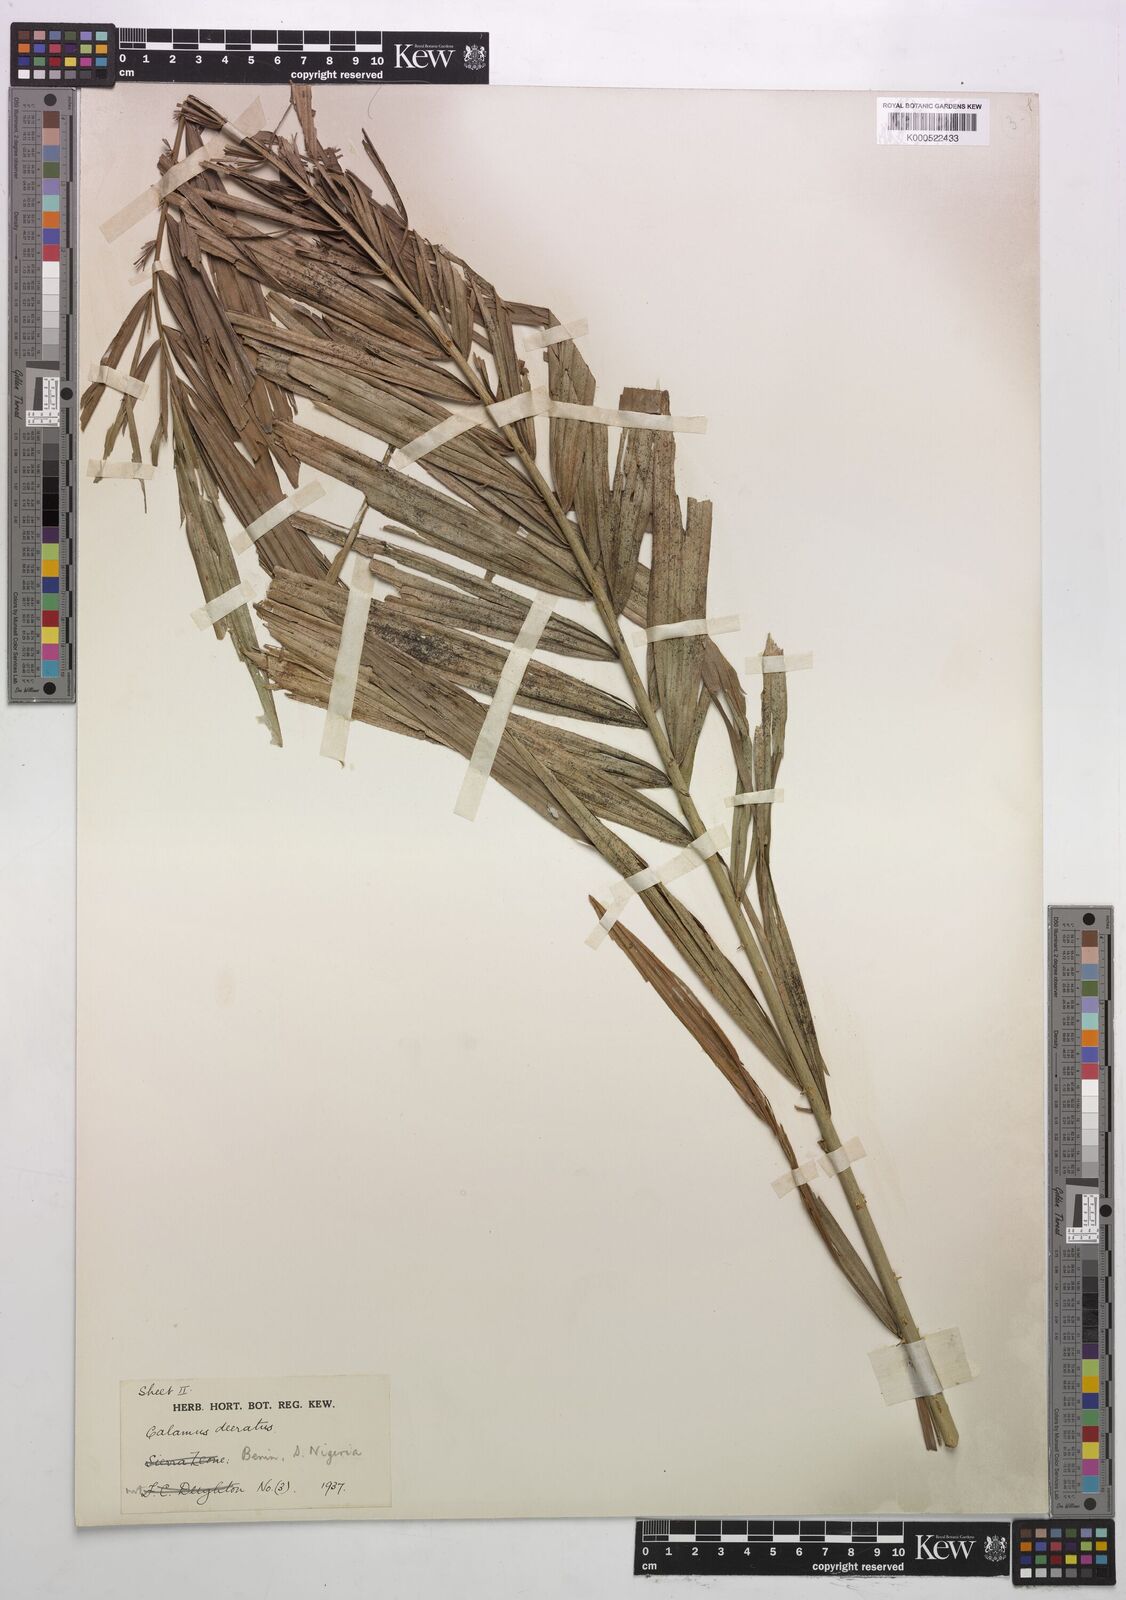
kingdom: Plantae
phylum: Tracheophyta
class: Liliopsida
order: Arecales
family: Arecaceae
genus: Calamus
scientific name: Calamus deerratus
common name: Rattan
